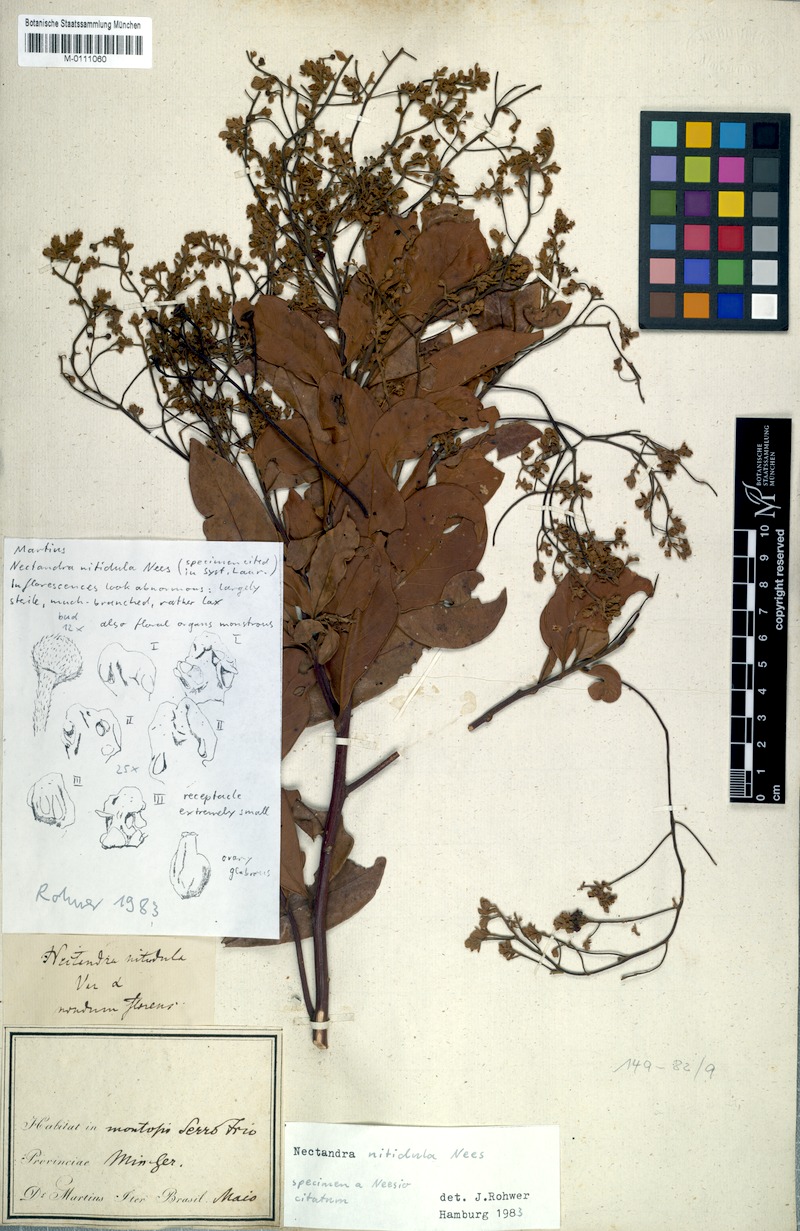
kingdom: Plantae
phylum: Tracheophyta
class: Magnoliopsida
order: Laurales
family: Lauraceae
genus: Nectandra
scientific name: Nectandra nitidula
